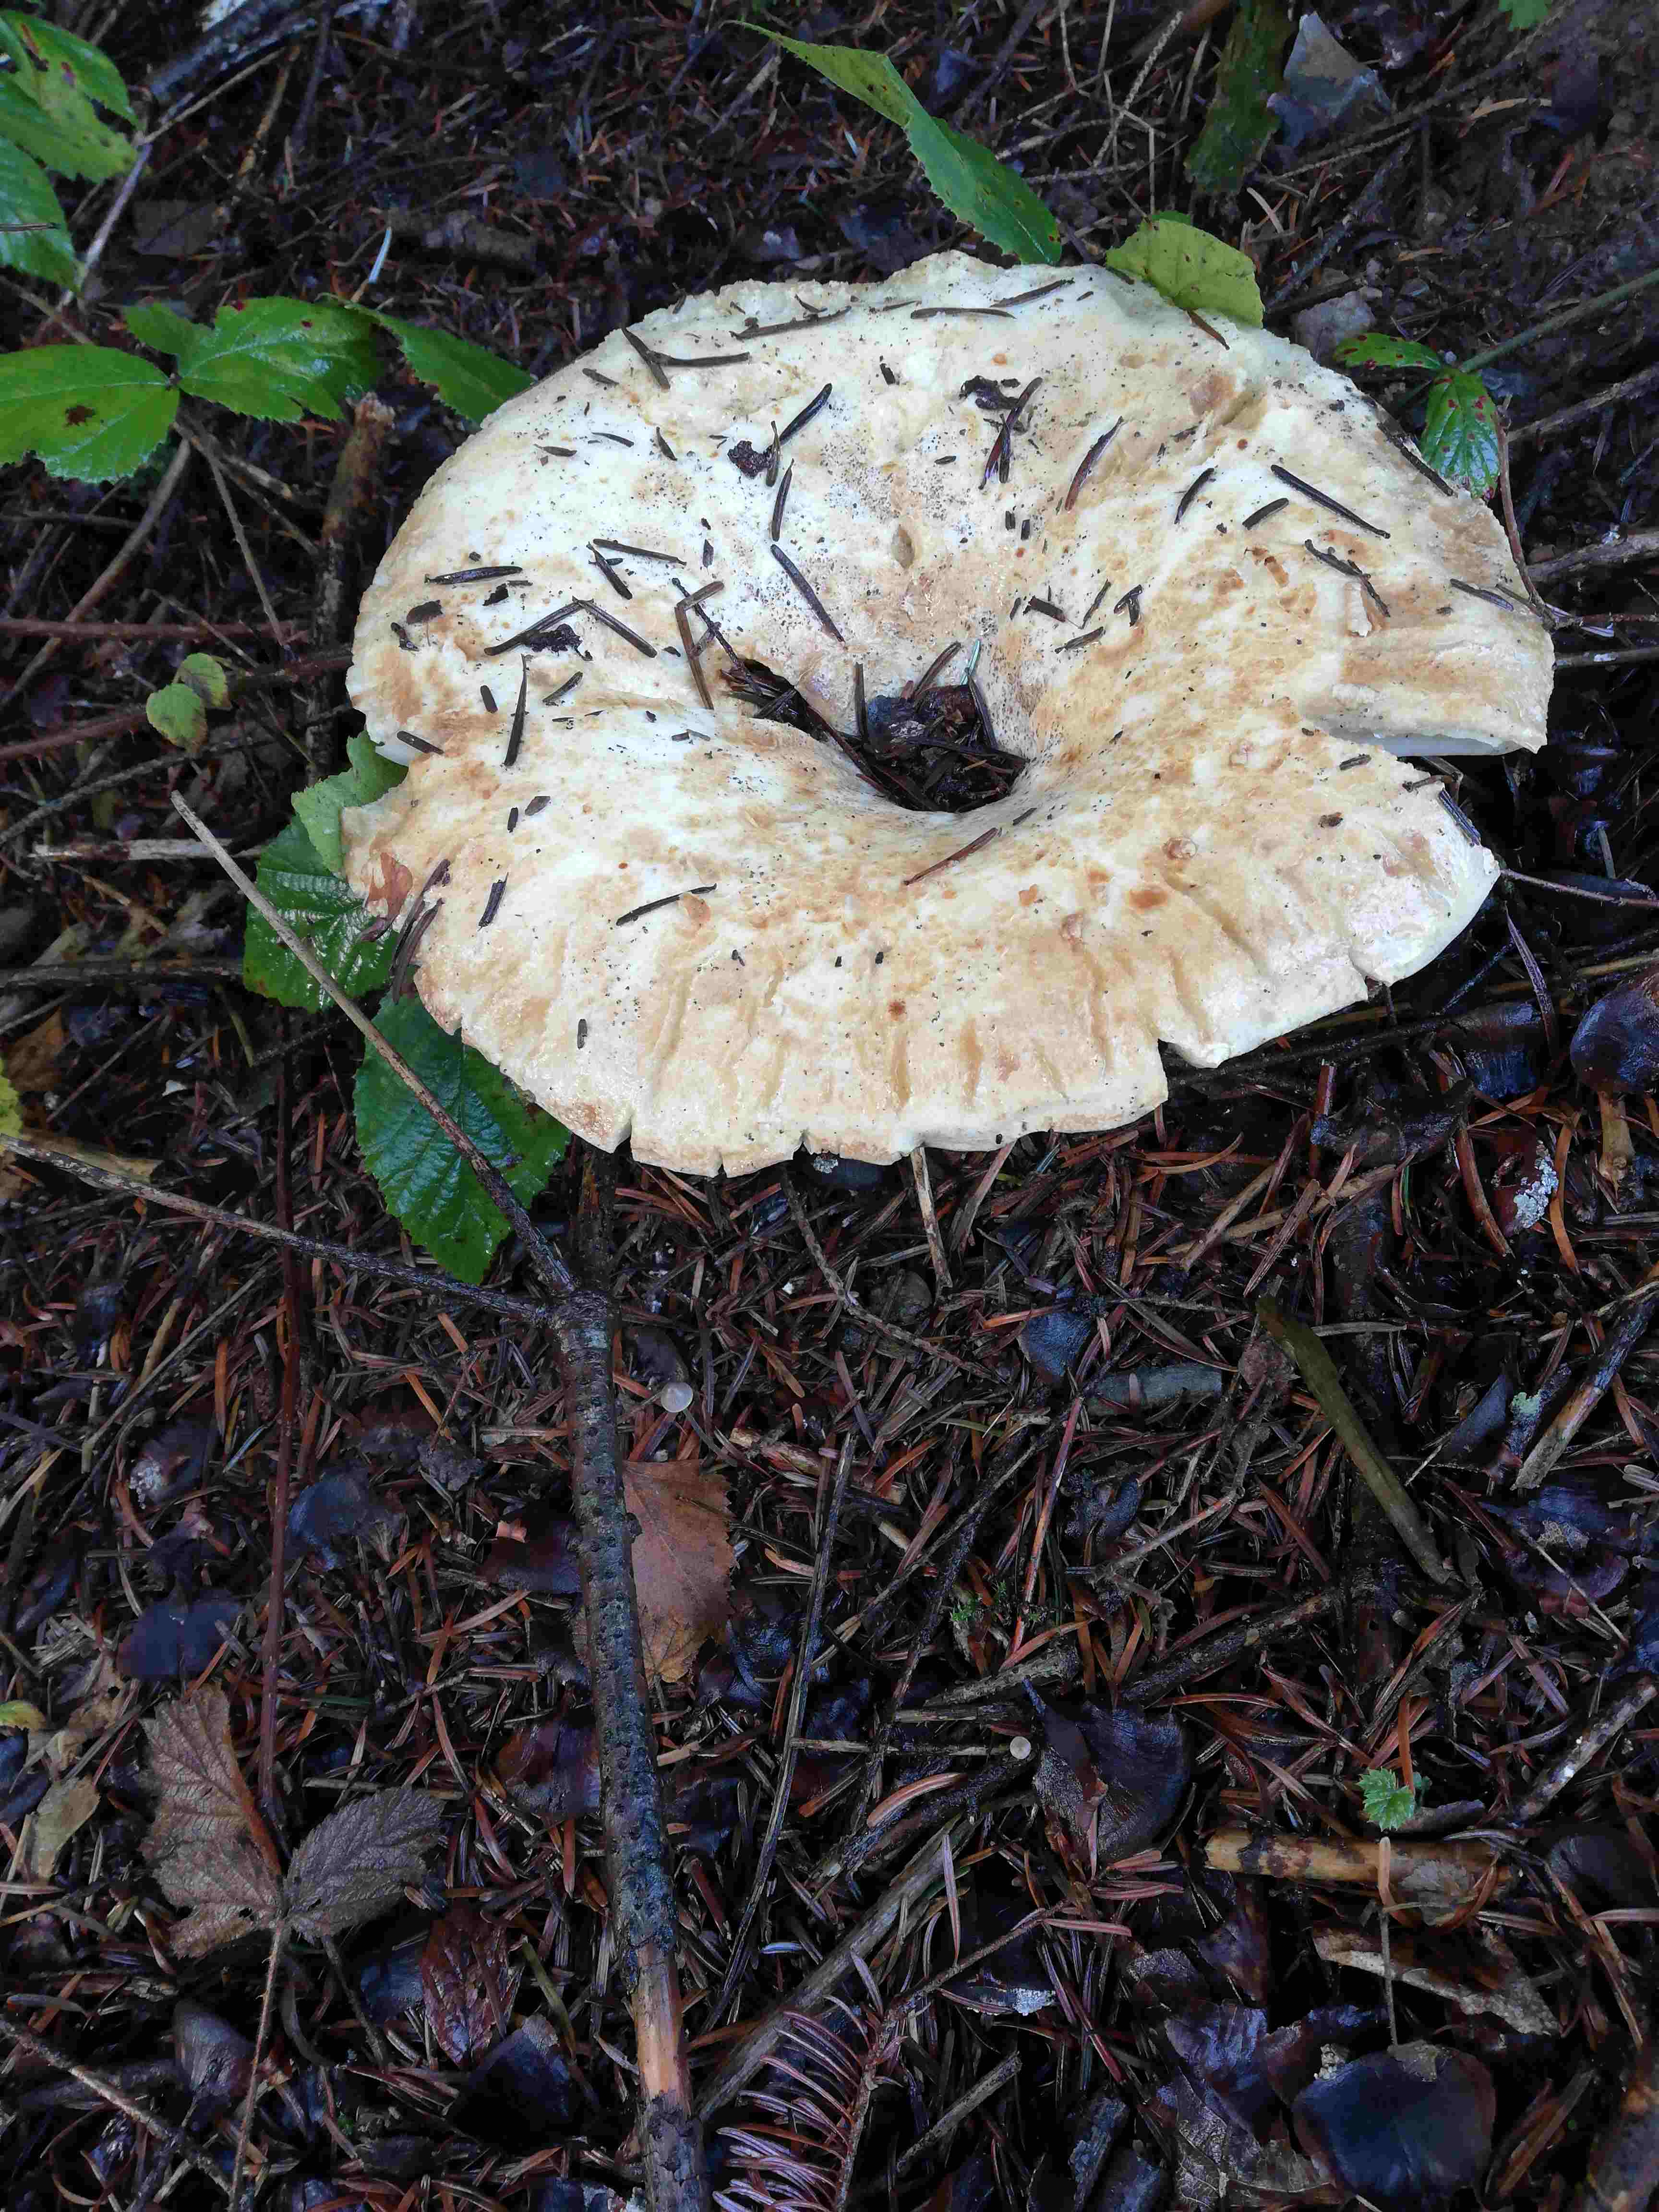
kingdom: Fungi
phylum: Basidiomycota
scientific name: Basidiomycota
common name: basidiesvampe
